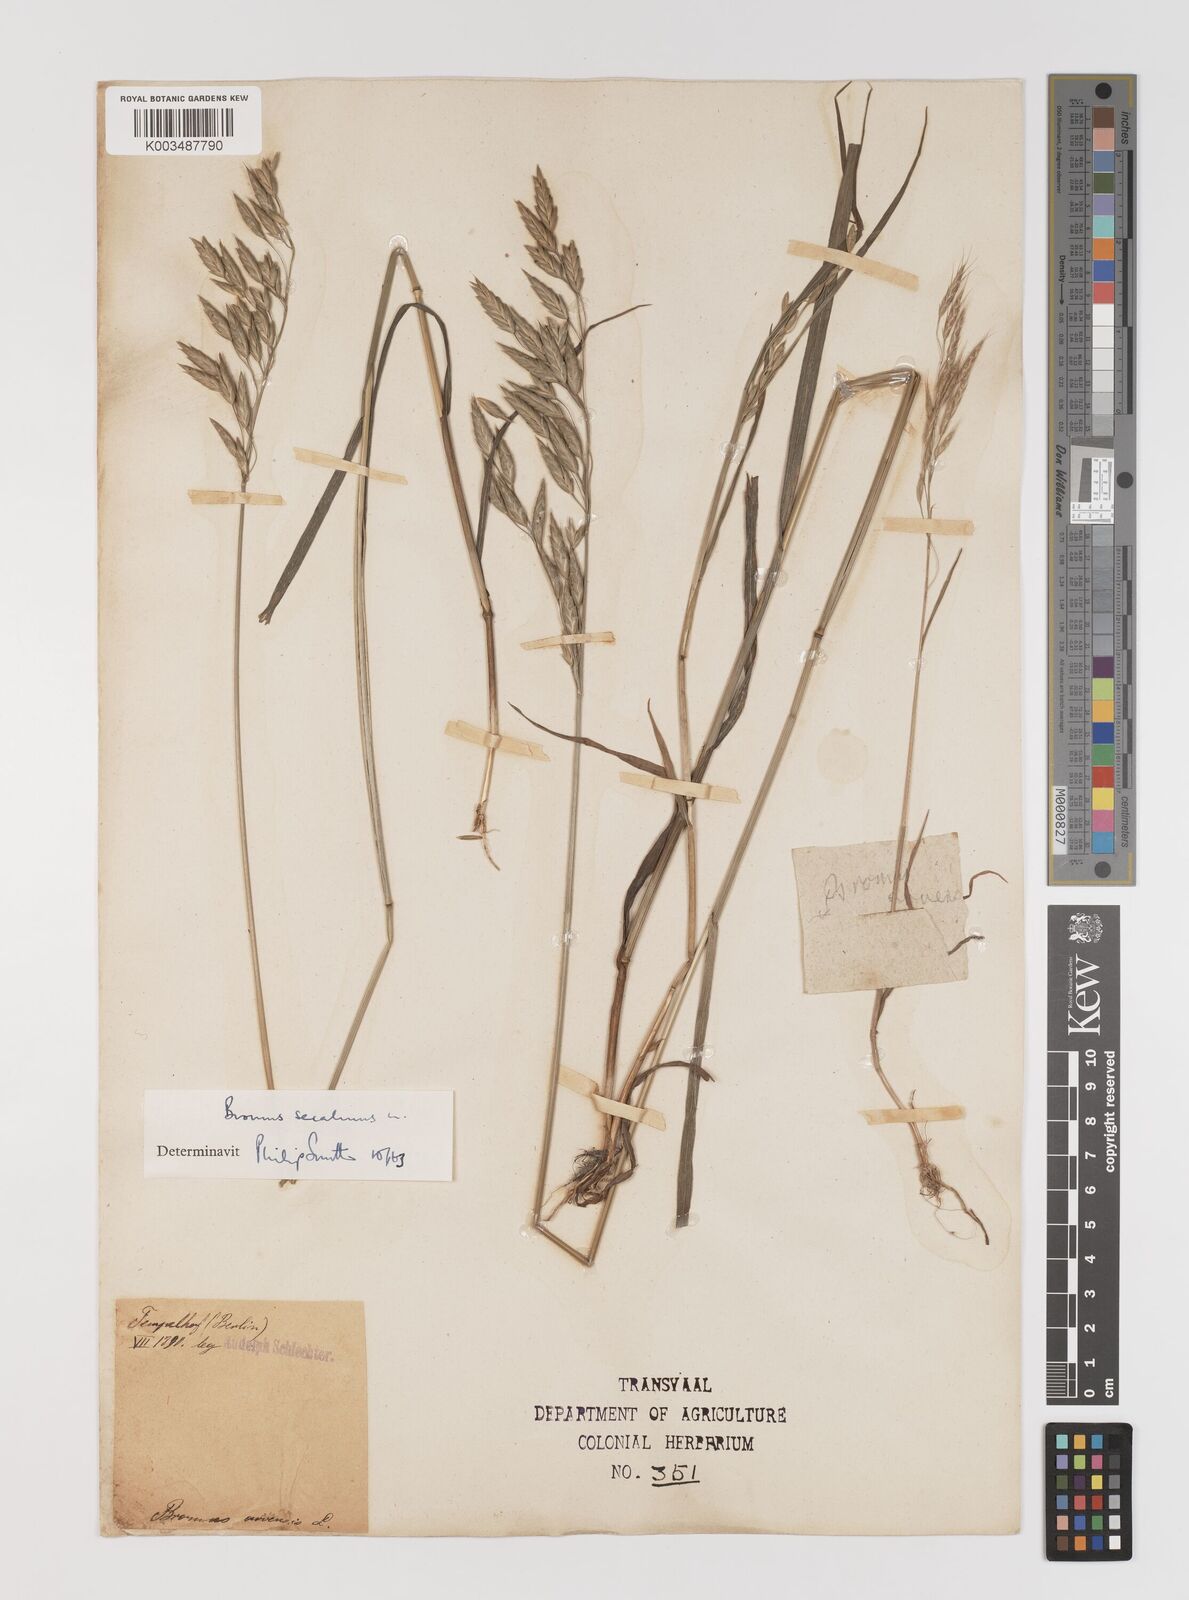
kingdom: Plantae
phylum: Tracheophyta
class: Liliopsida
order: Poales
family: Poaceae
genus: Bromus
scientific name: Bromus secalinus
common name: Rye brome
